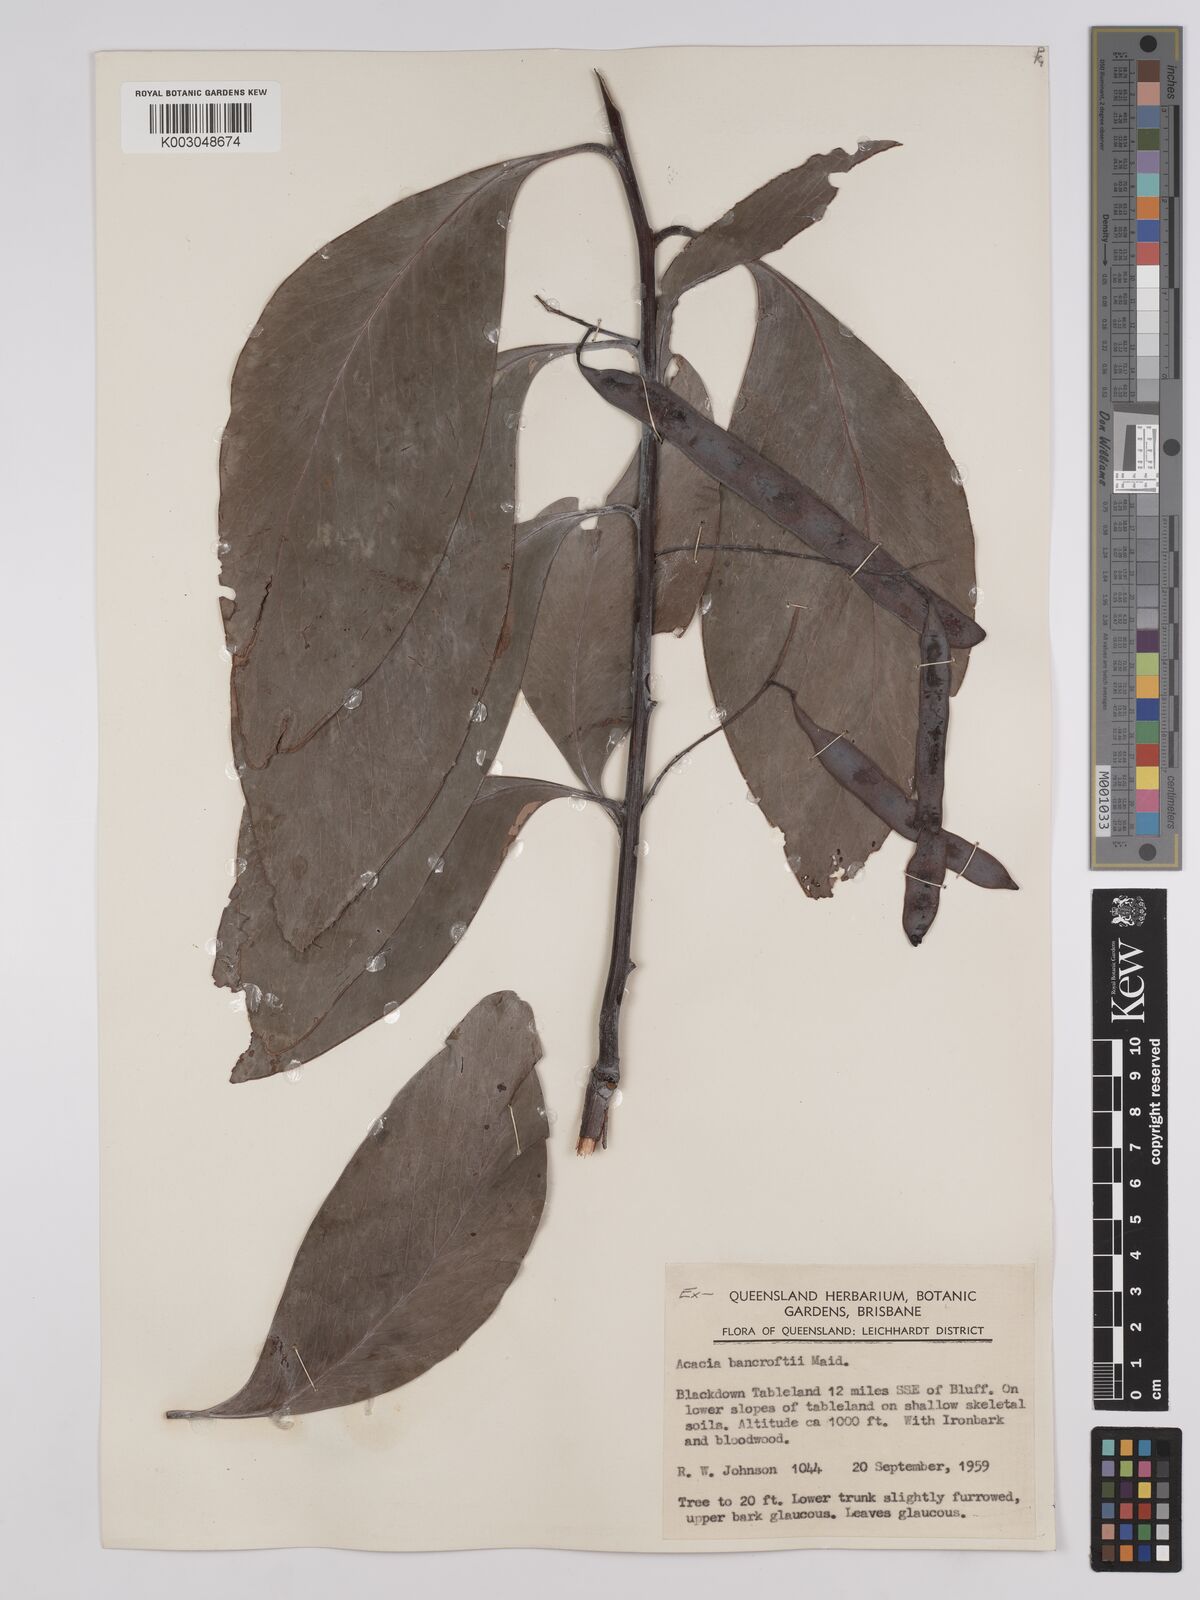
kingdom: Plantae
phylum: Tracheophyta
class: Magnoliopsida
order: Fabales
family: Fabaceae
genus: Acacia
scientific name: Acacia
